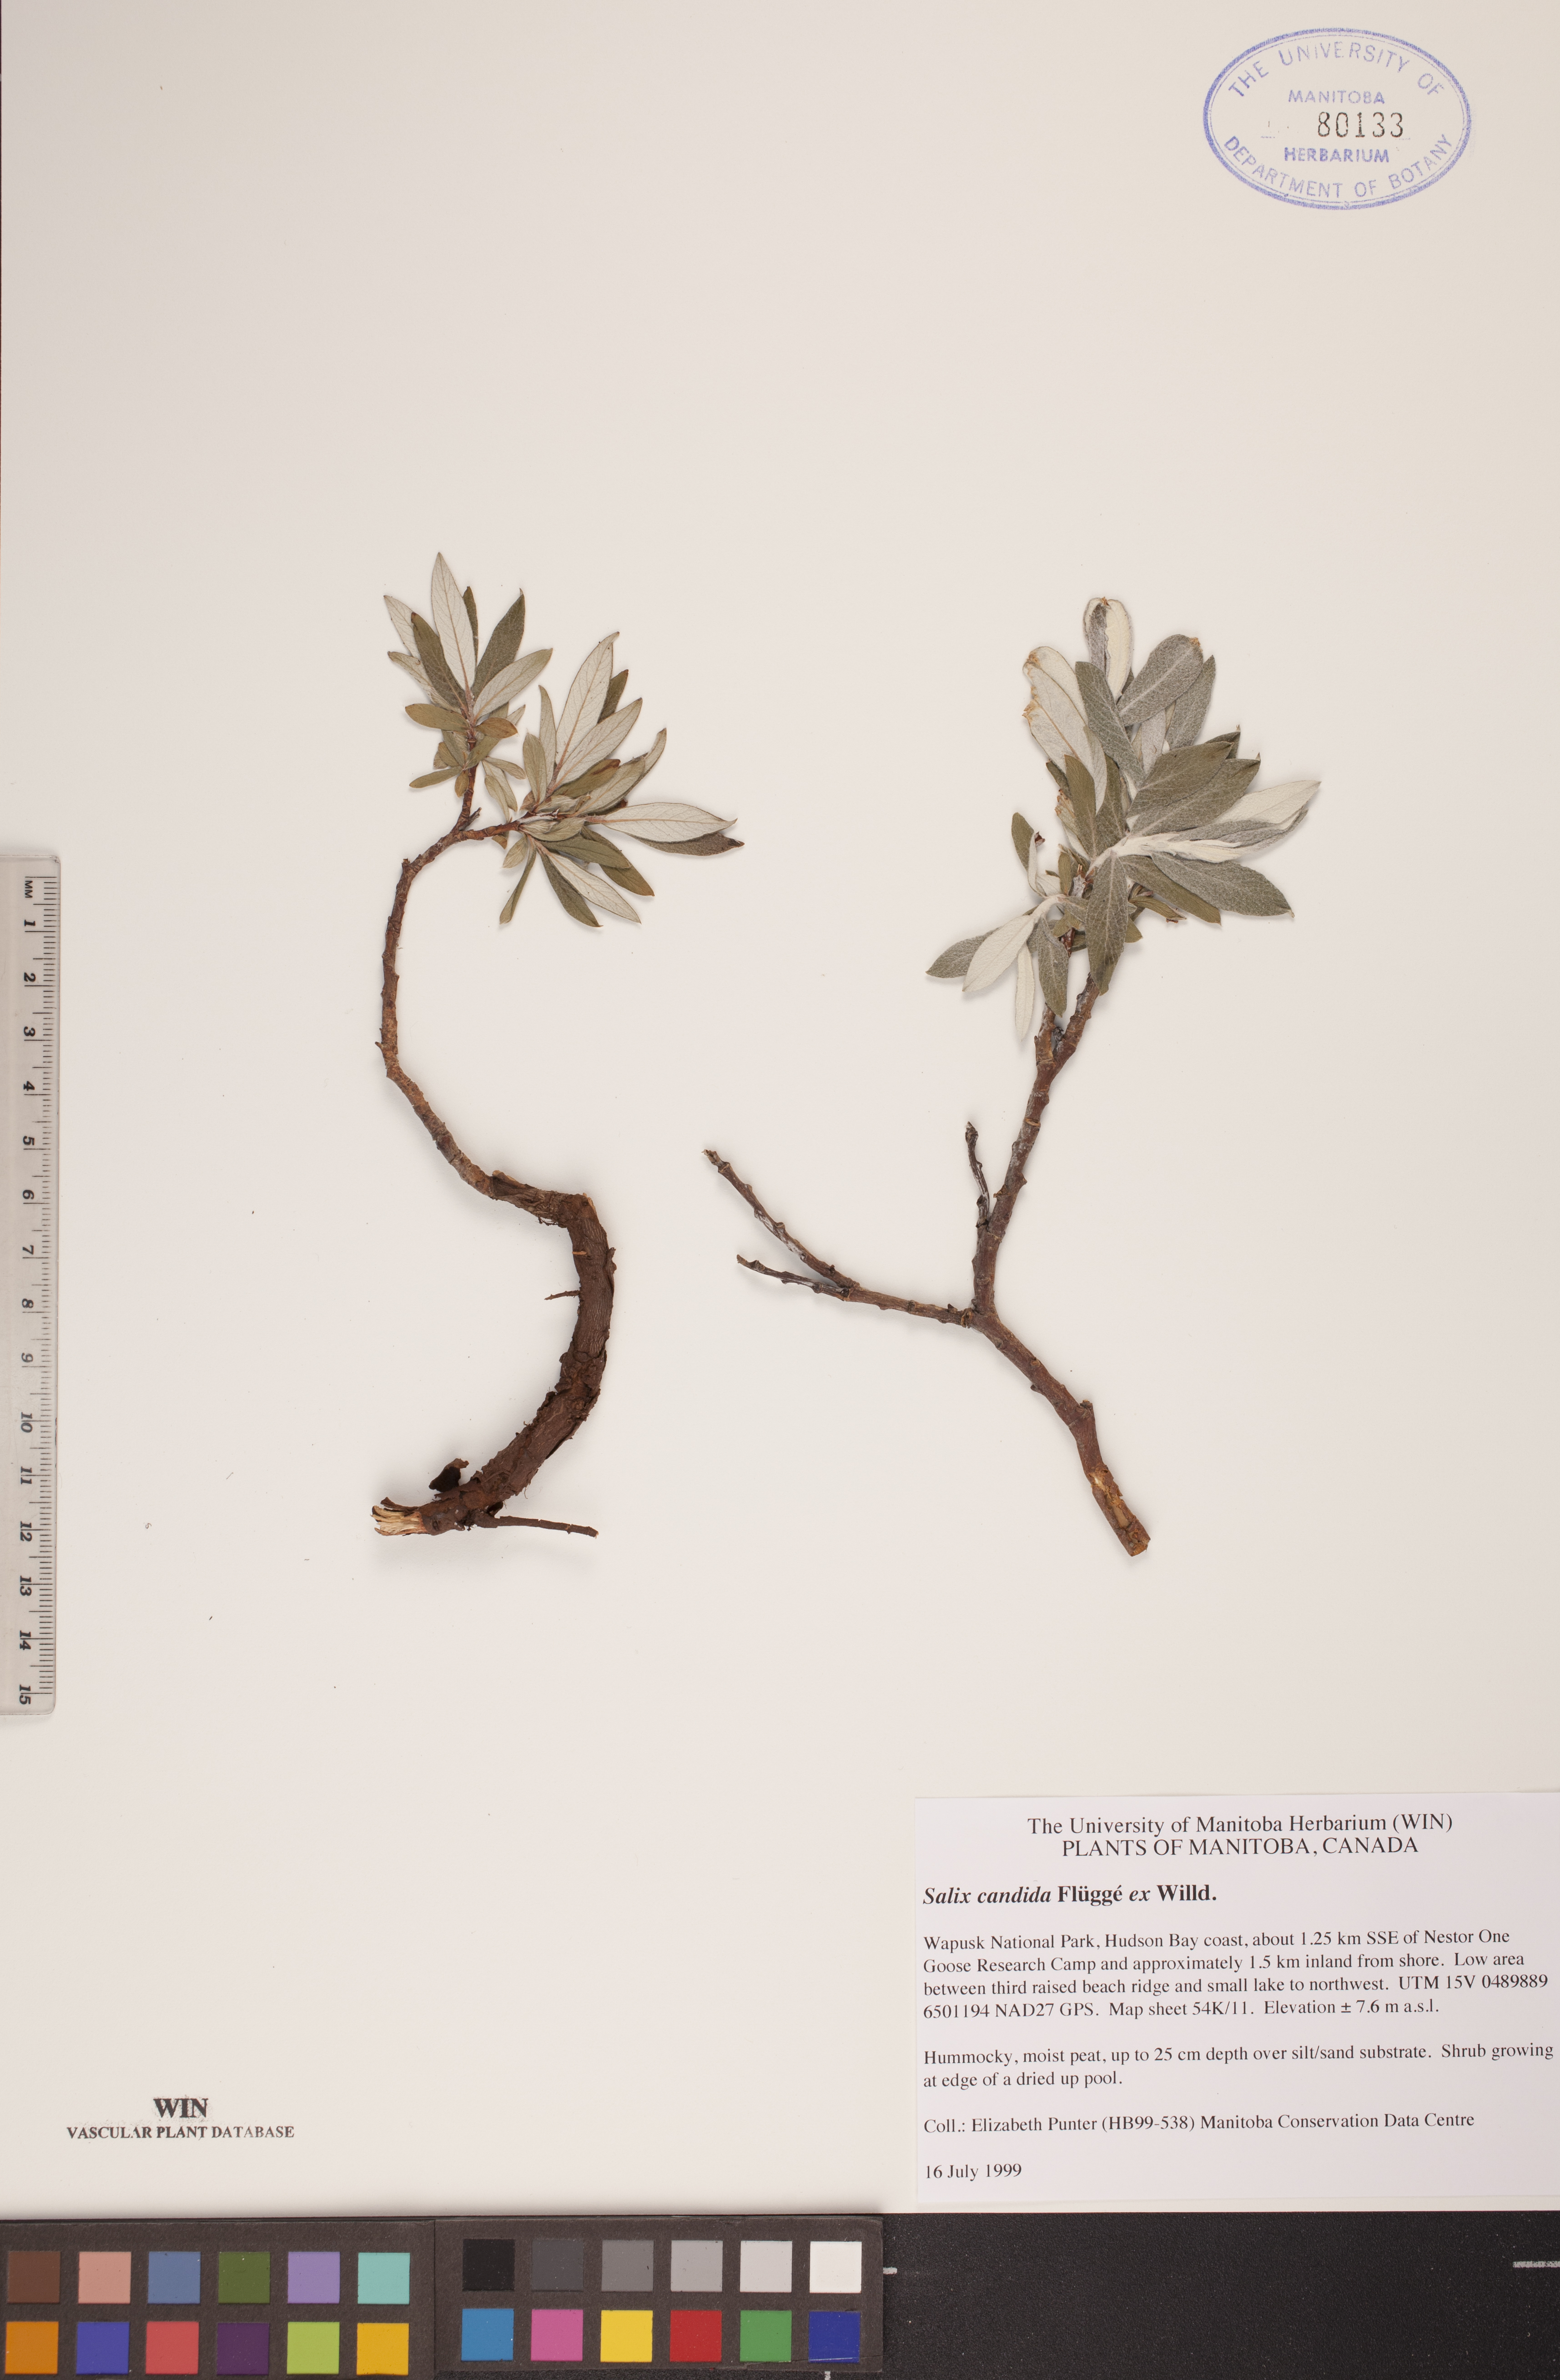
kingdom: Plantae
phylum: Tracheophyta
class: Magnoliopsida
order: Malpighiales
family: Salicaceae
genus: Salix
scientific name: Salix candida
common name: Hoary willow
